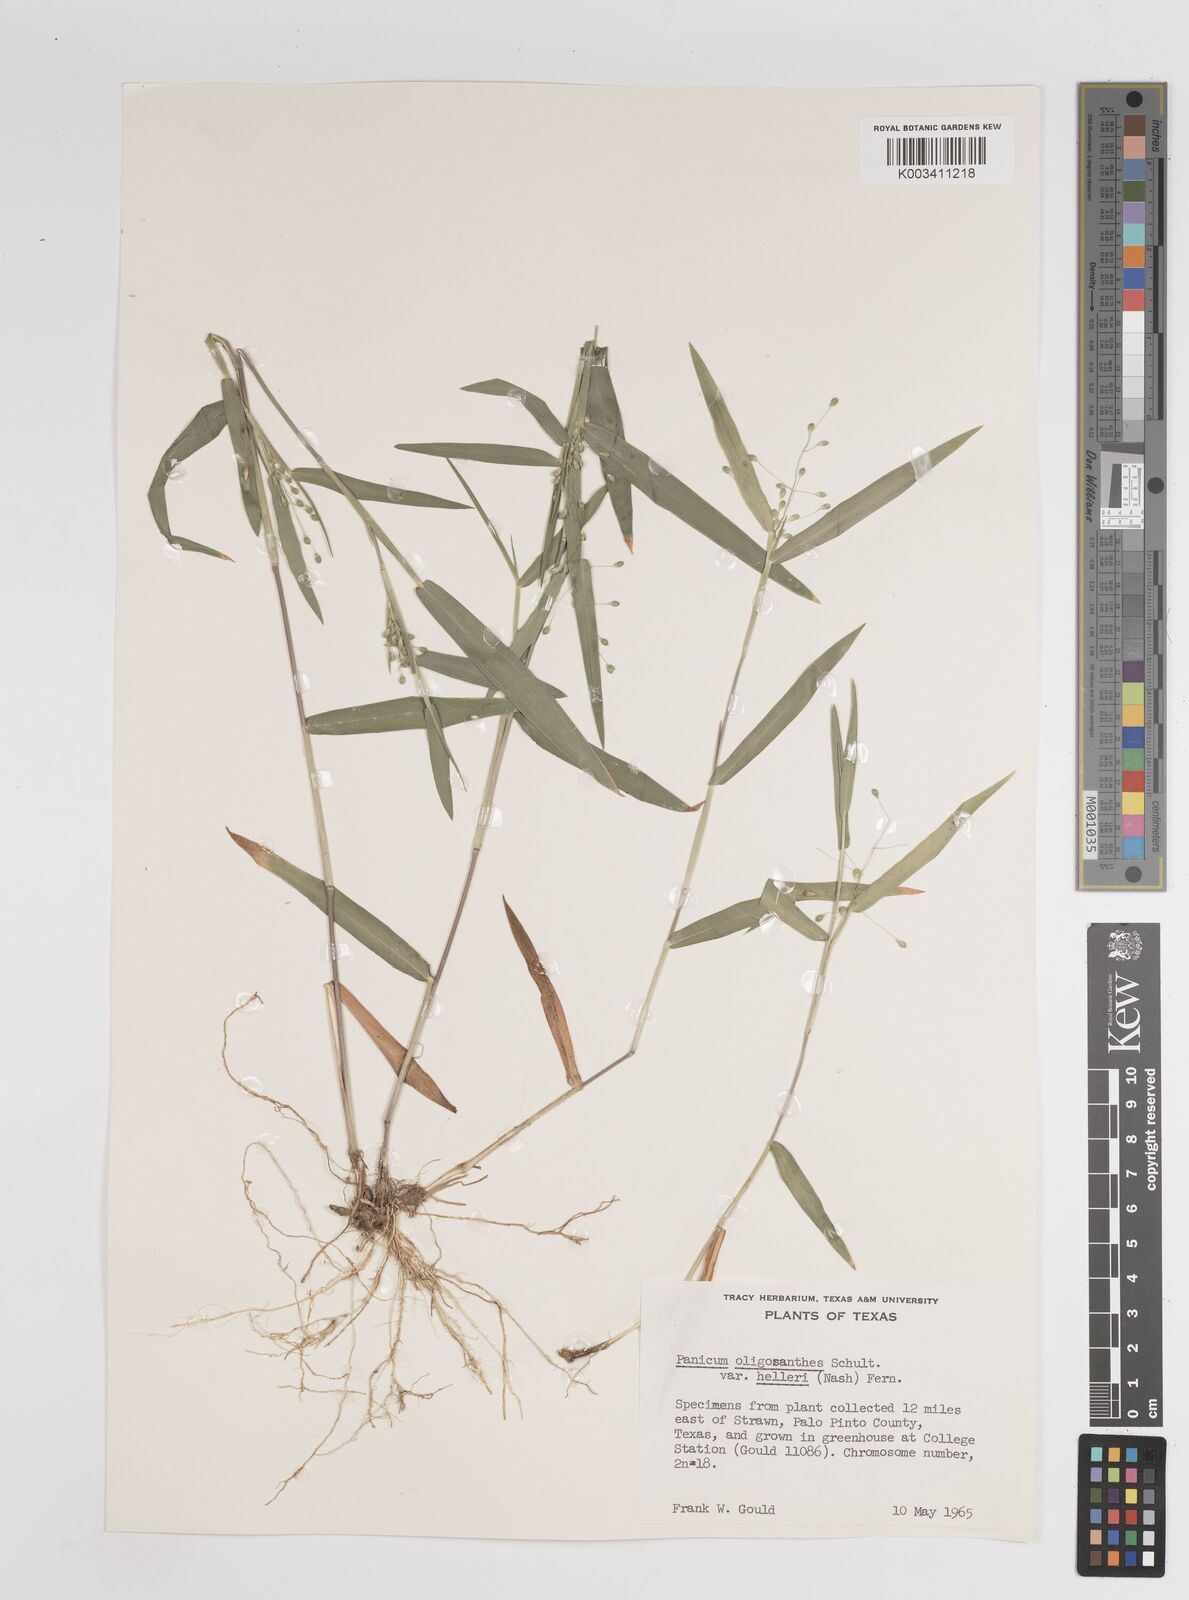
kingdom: Plantae
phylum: Tracheophyta
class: Liliopsida
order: Poales
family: Poaceae
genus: Dichanthelium
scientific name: Dichanthelium oligosanthes
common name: Few-anther obscuregrass
